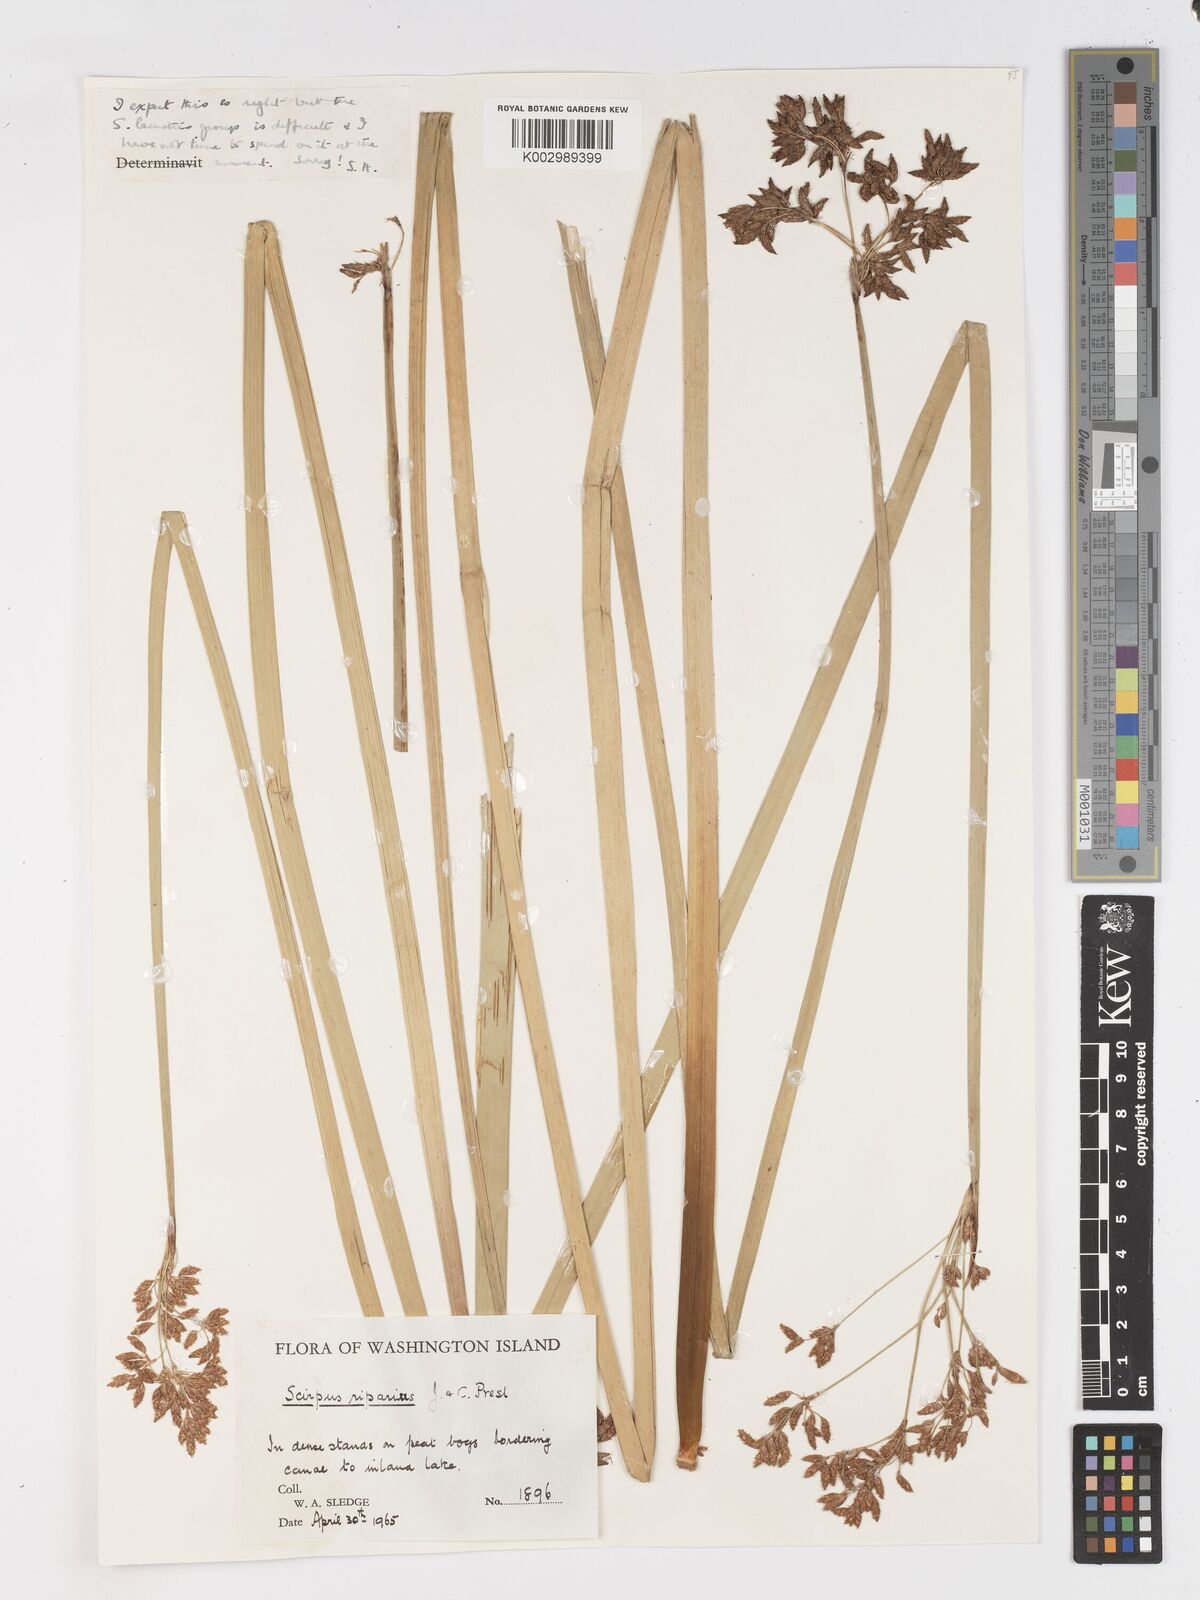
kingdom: Plantae
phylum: Tracheophyta
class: Liliopsida
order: Poales
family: Cyperaceae
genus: Schoenoplectus
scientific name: Schoenoplectus californicus
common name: California bulrush
